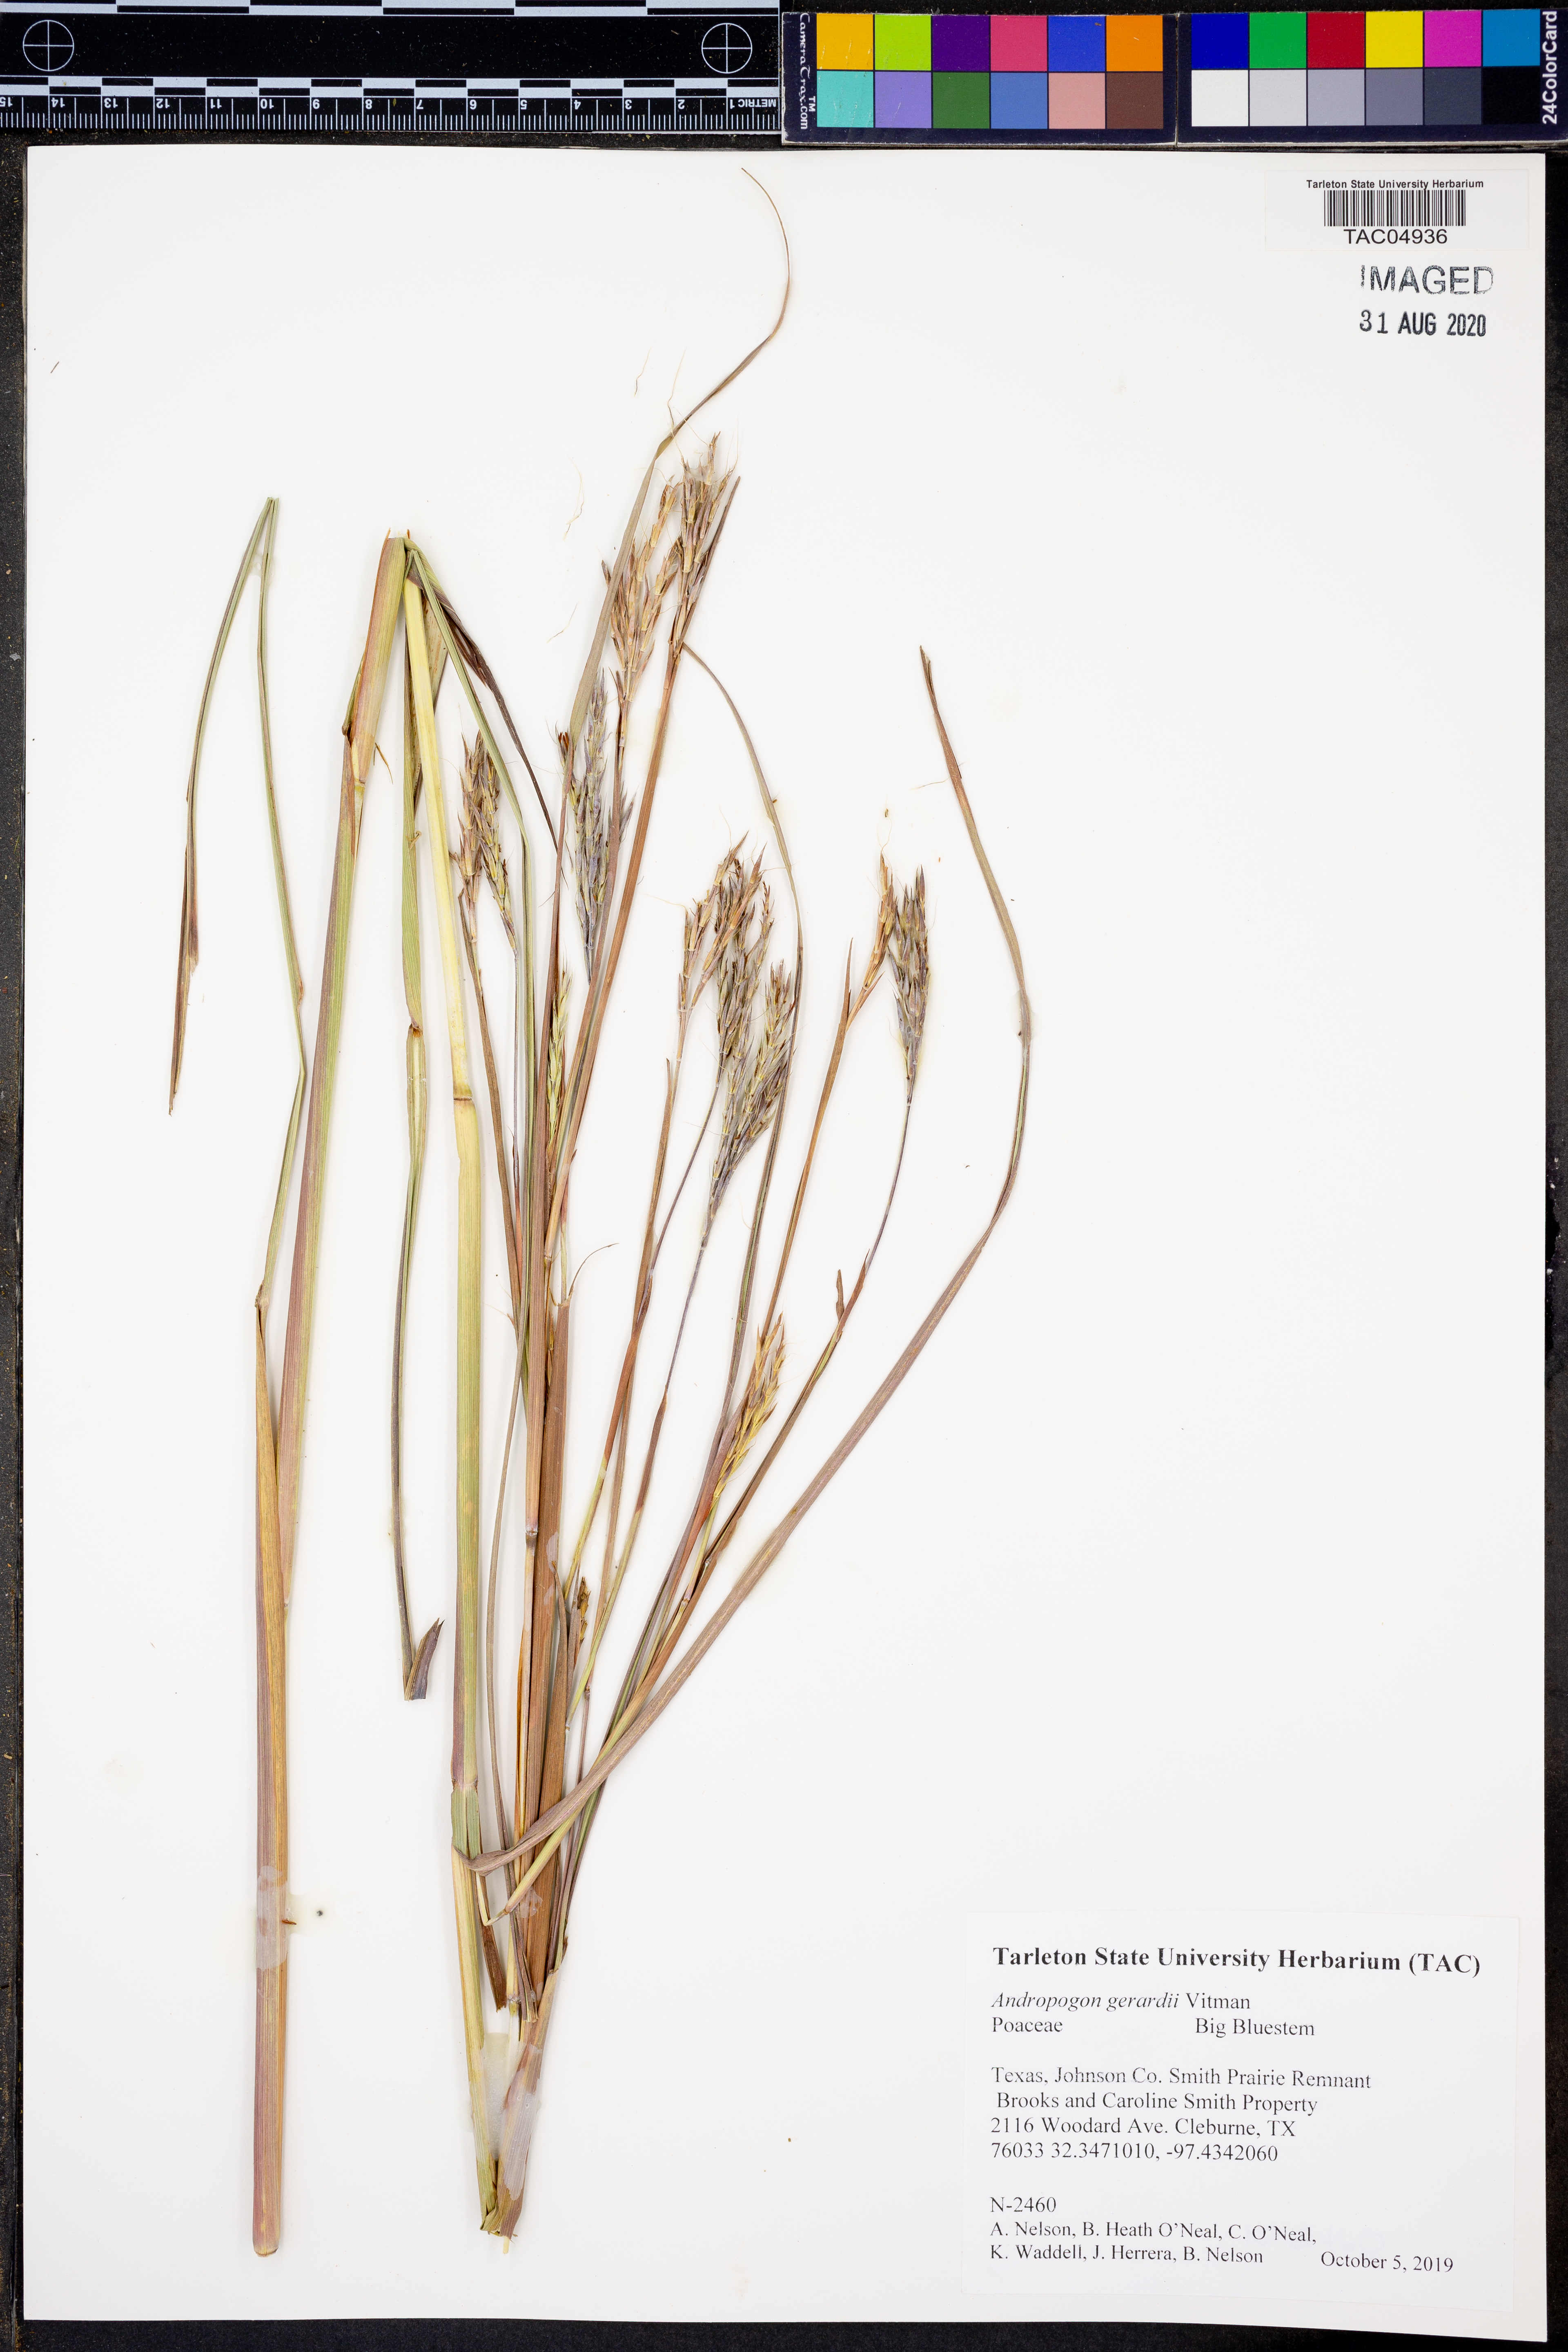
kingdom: Plantae
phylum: Tracheophyta
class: Liliopsida
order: Poales
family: Poaceae
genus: Andropogon
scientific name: Andropogon gerardi
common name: Big bluestem
